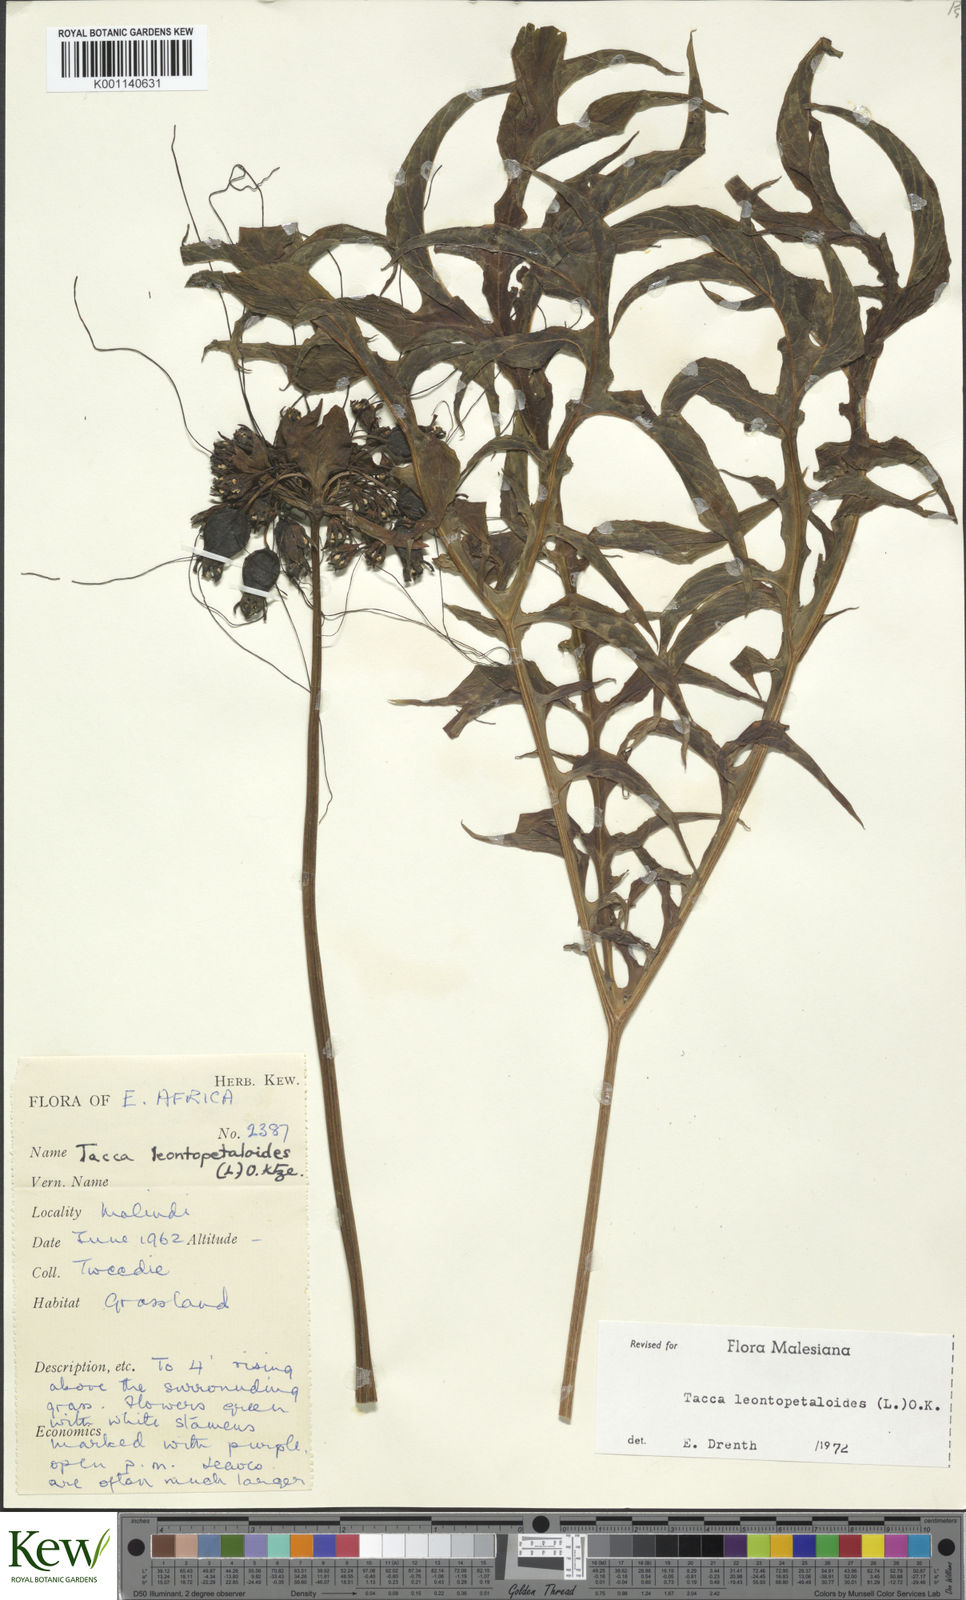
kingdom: Plantae
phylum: Tracheophyta
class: Liliopsida
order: Dioscoreales
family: Dioscoreaceae
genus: Tacca
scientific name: Tacca leontopetaloides
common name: Arrowroot
